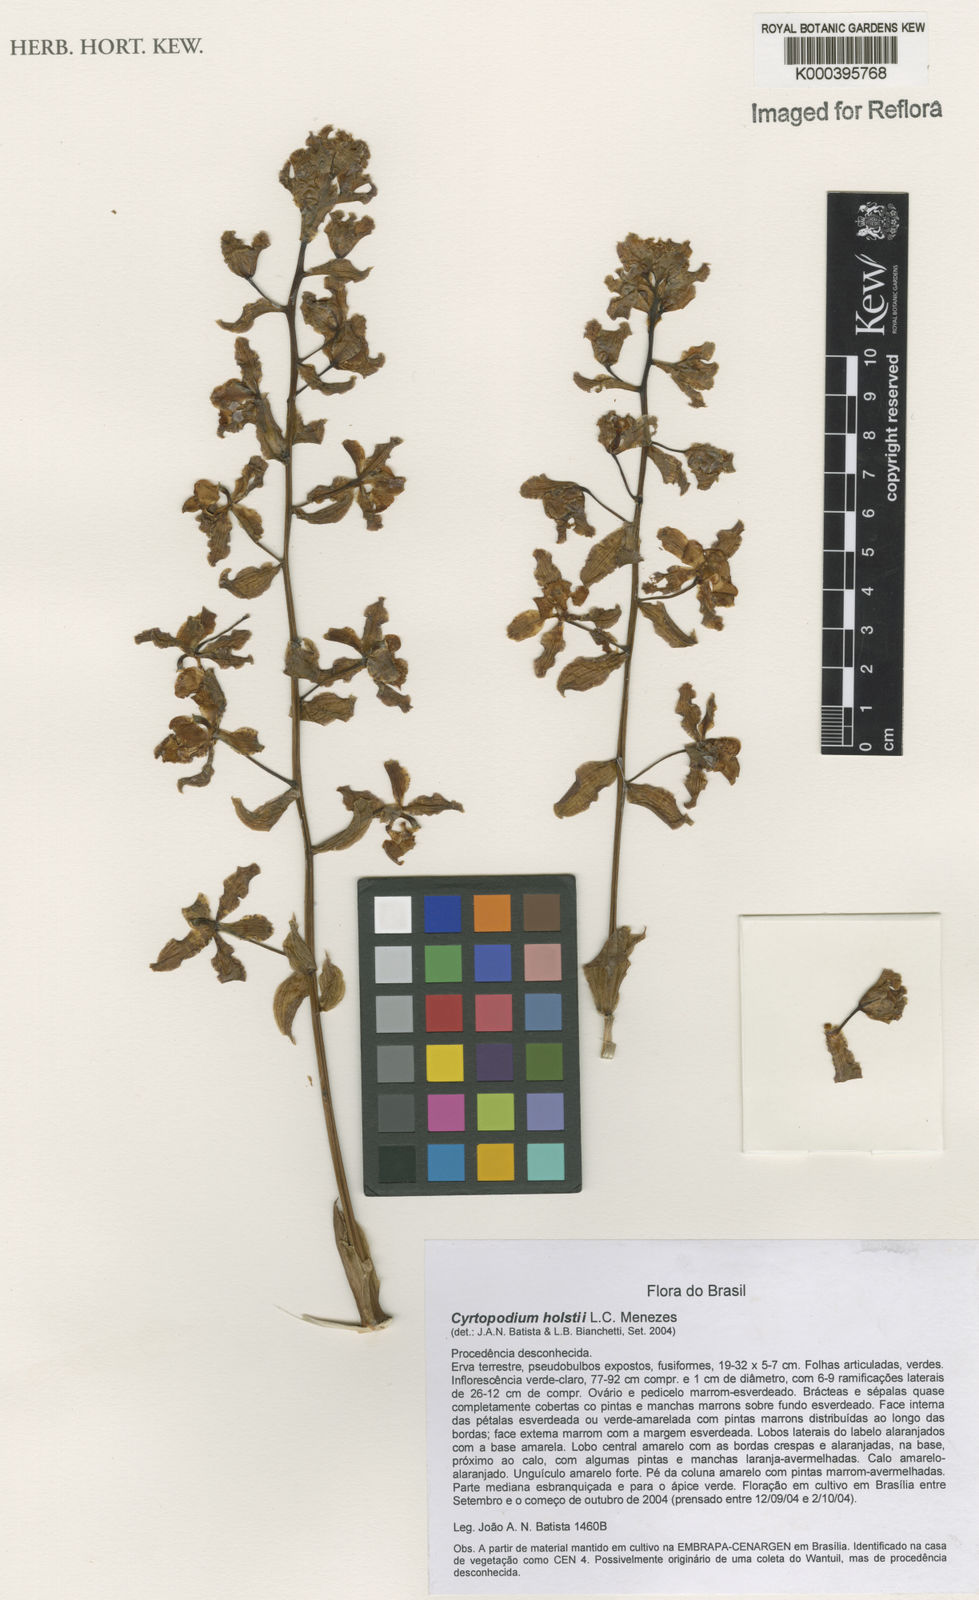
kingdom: Plantae
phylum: Tracheophyta
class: Liliopsida
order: Asparagales
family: Orchidaceae
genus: Cyrtopodium
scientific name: Cyrtopodium holstii
